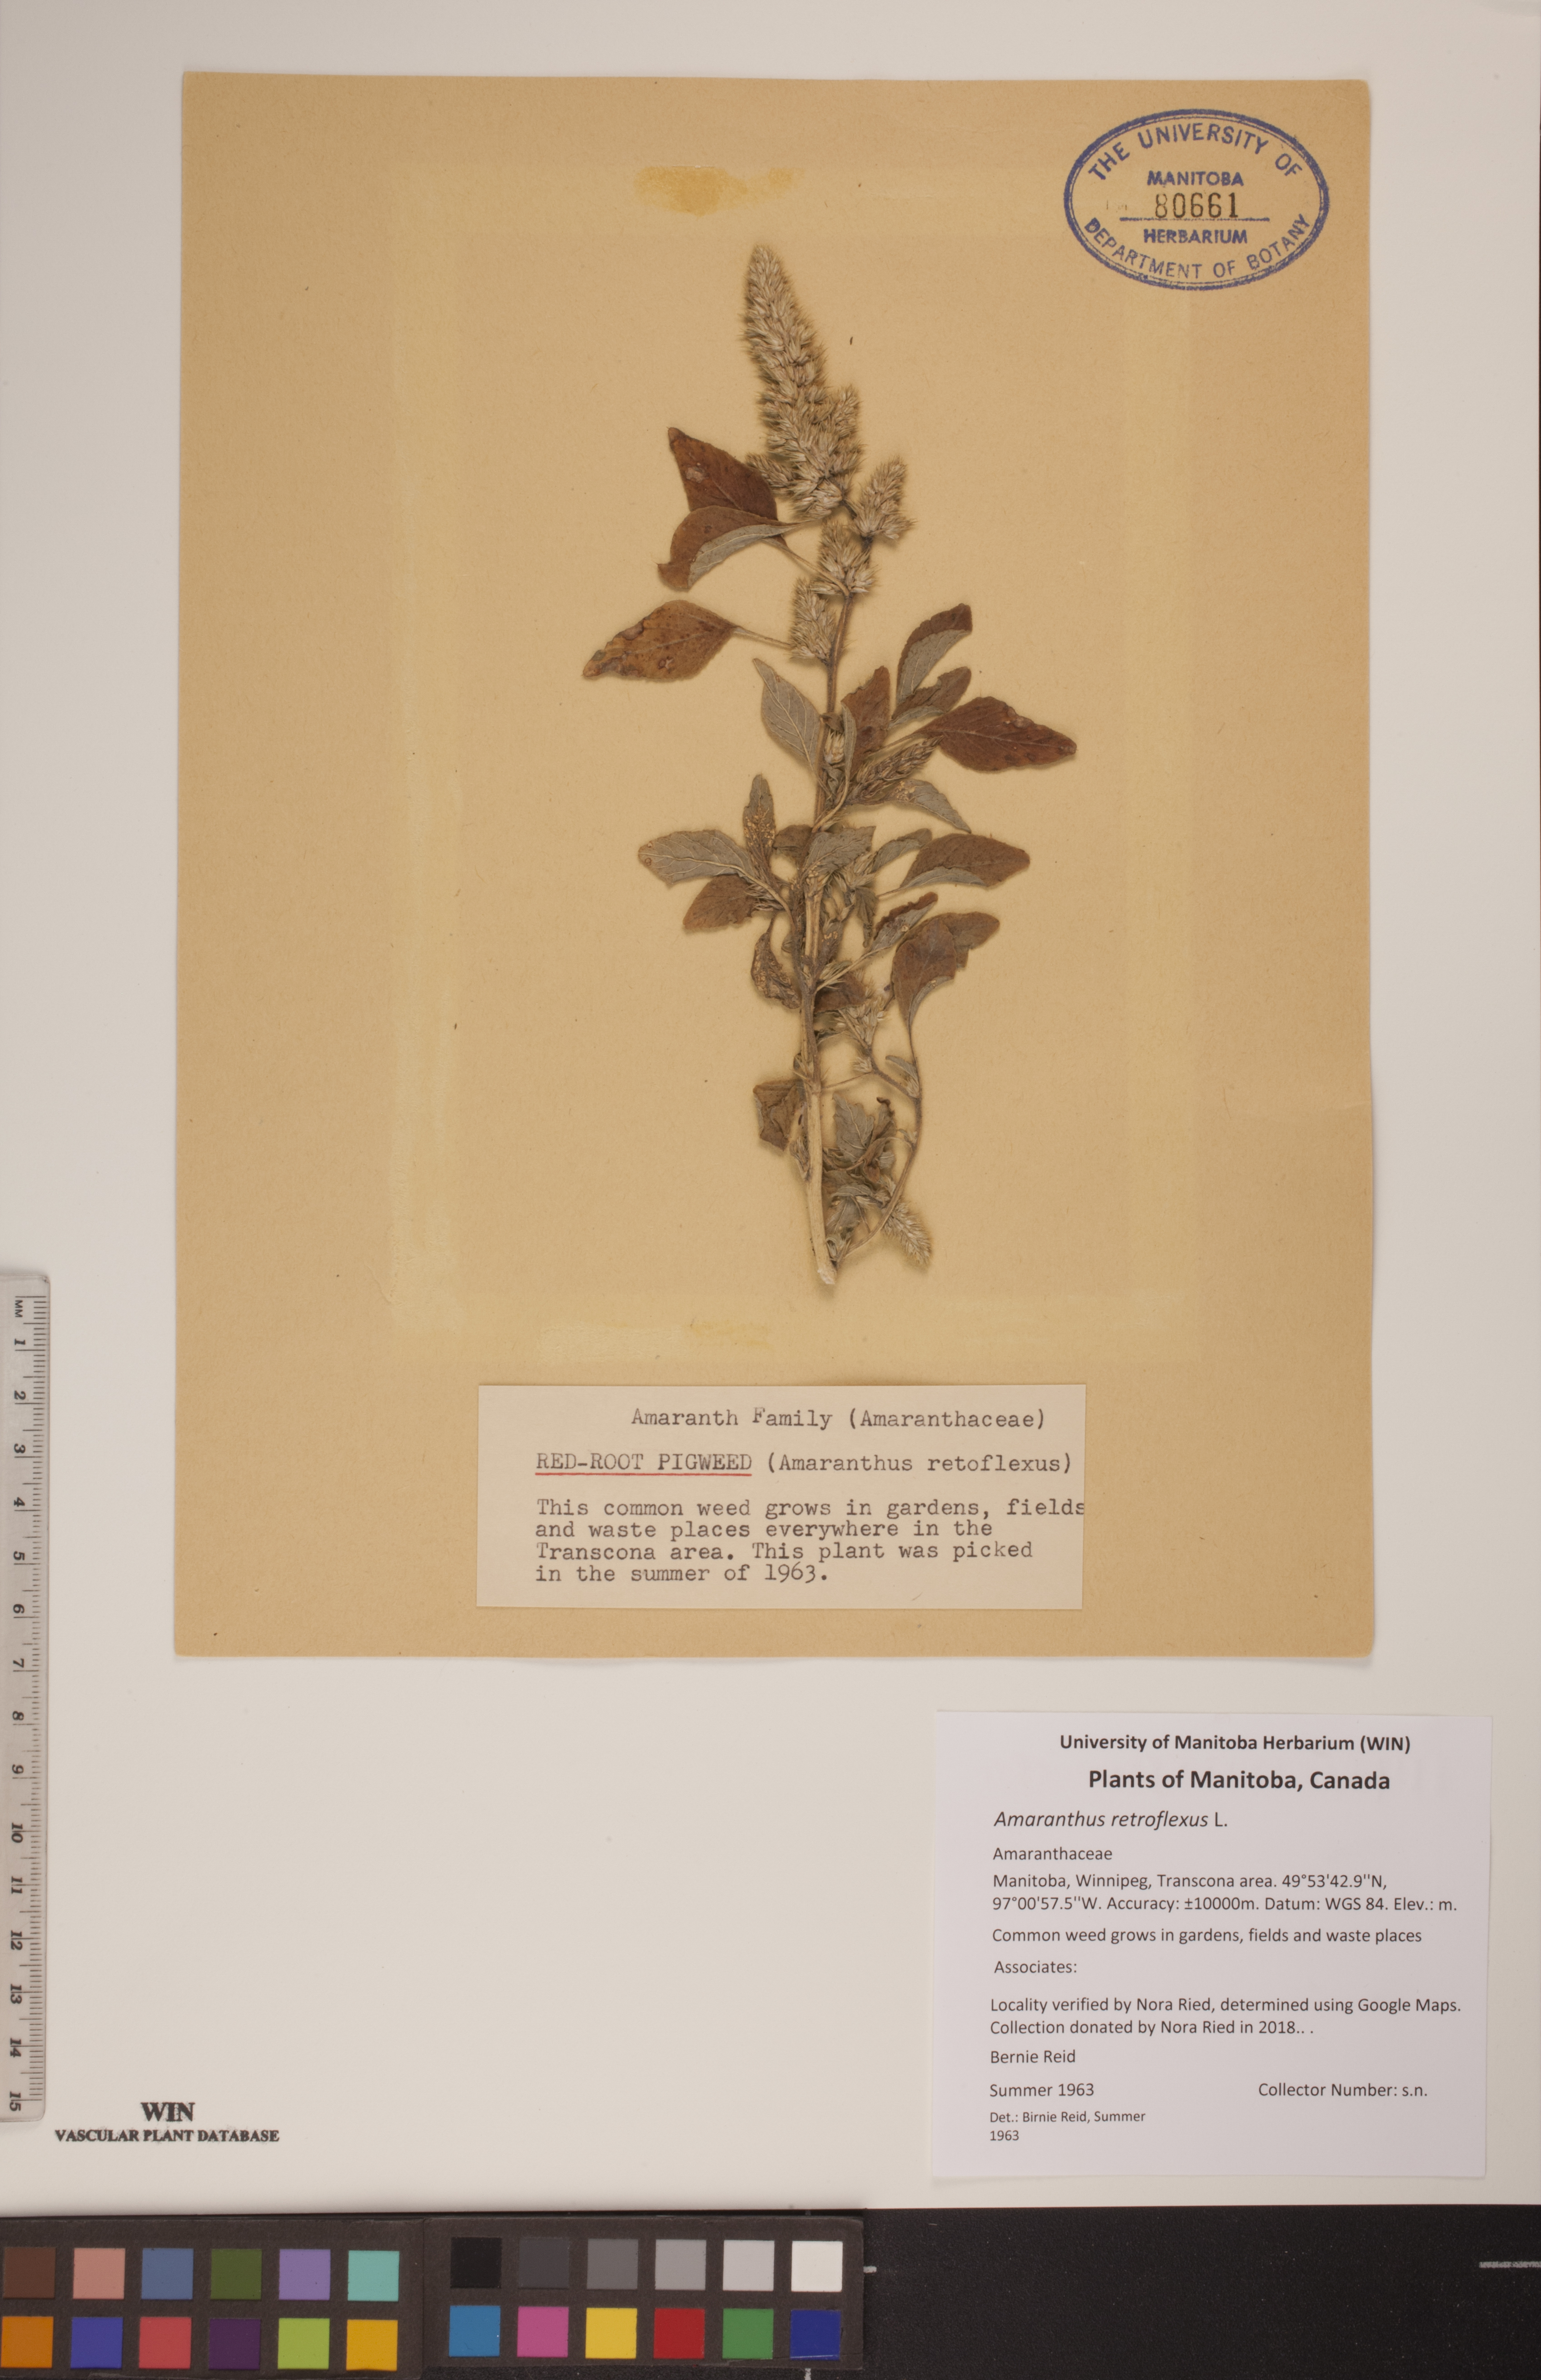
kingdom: Plantae
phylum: Tracheophyta
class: Magnoliopsida
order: Caryophyllales
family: Amaranthaceae
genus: Amaranthus
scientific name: Amaranthus retroflexus
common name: Redroot amaranth
